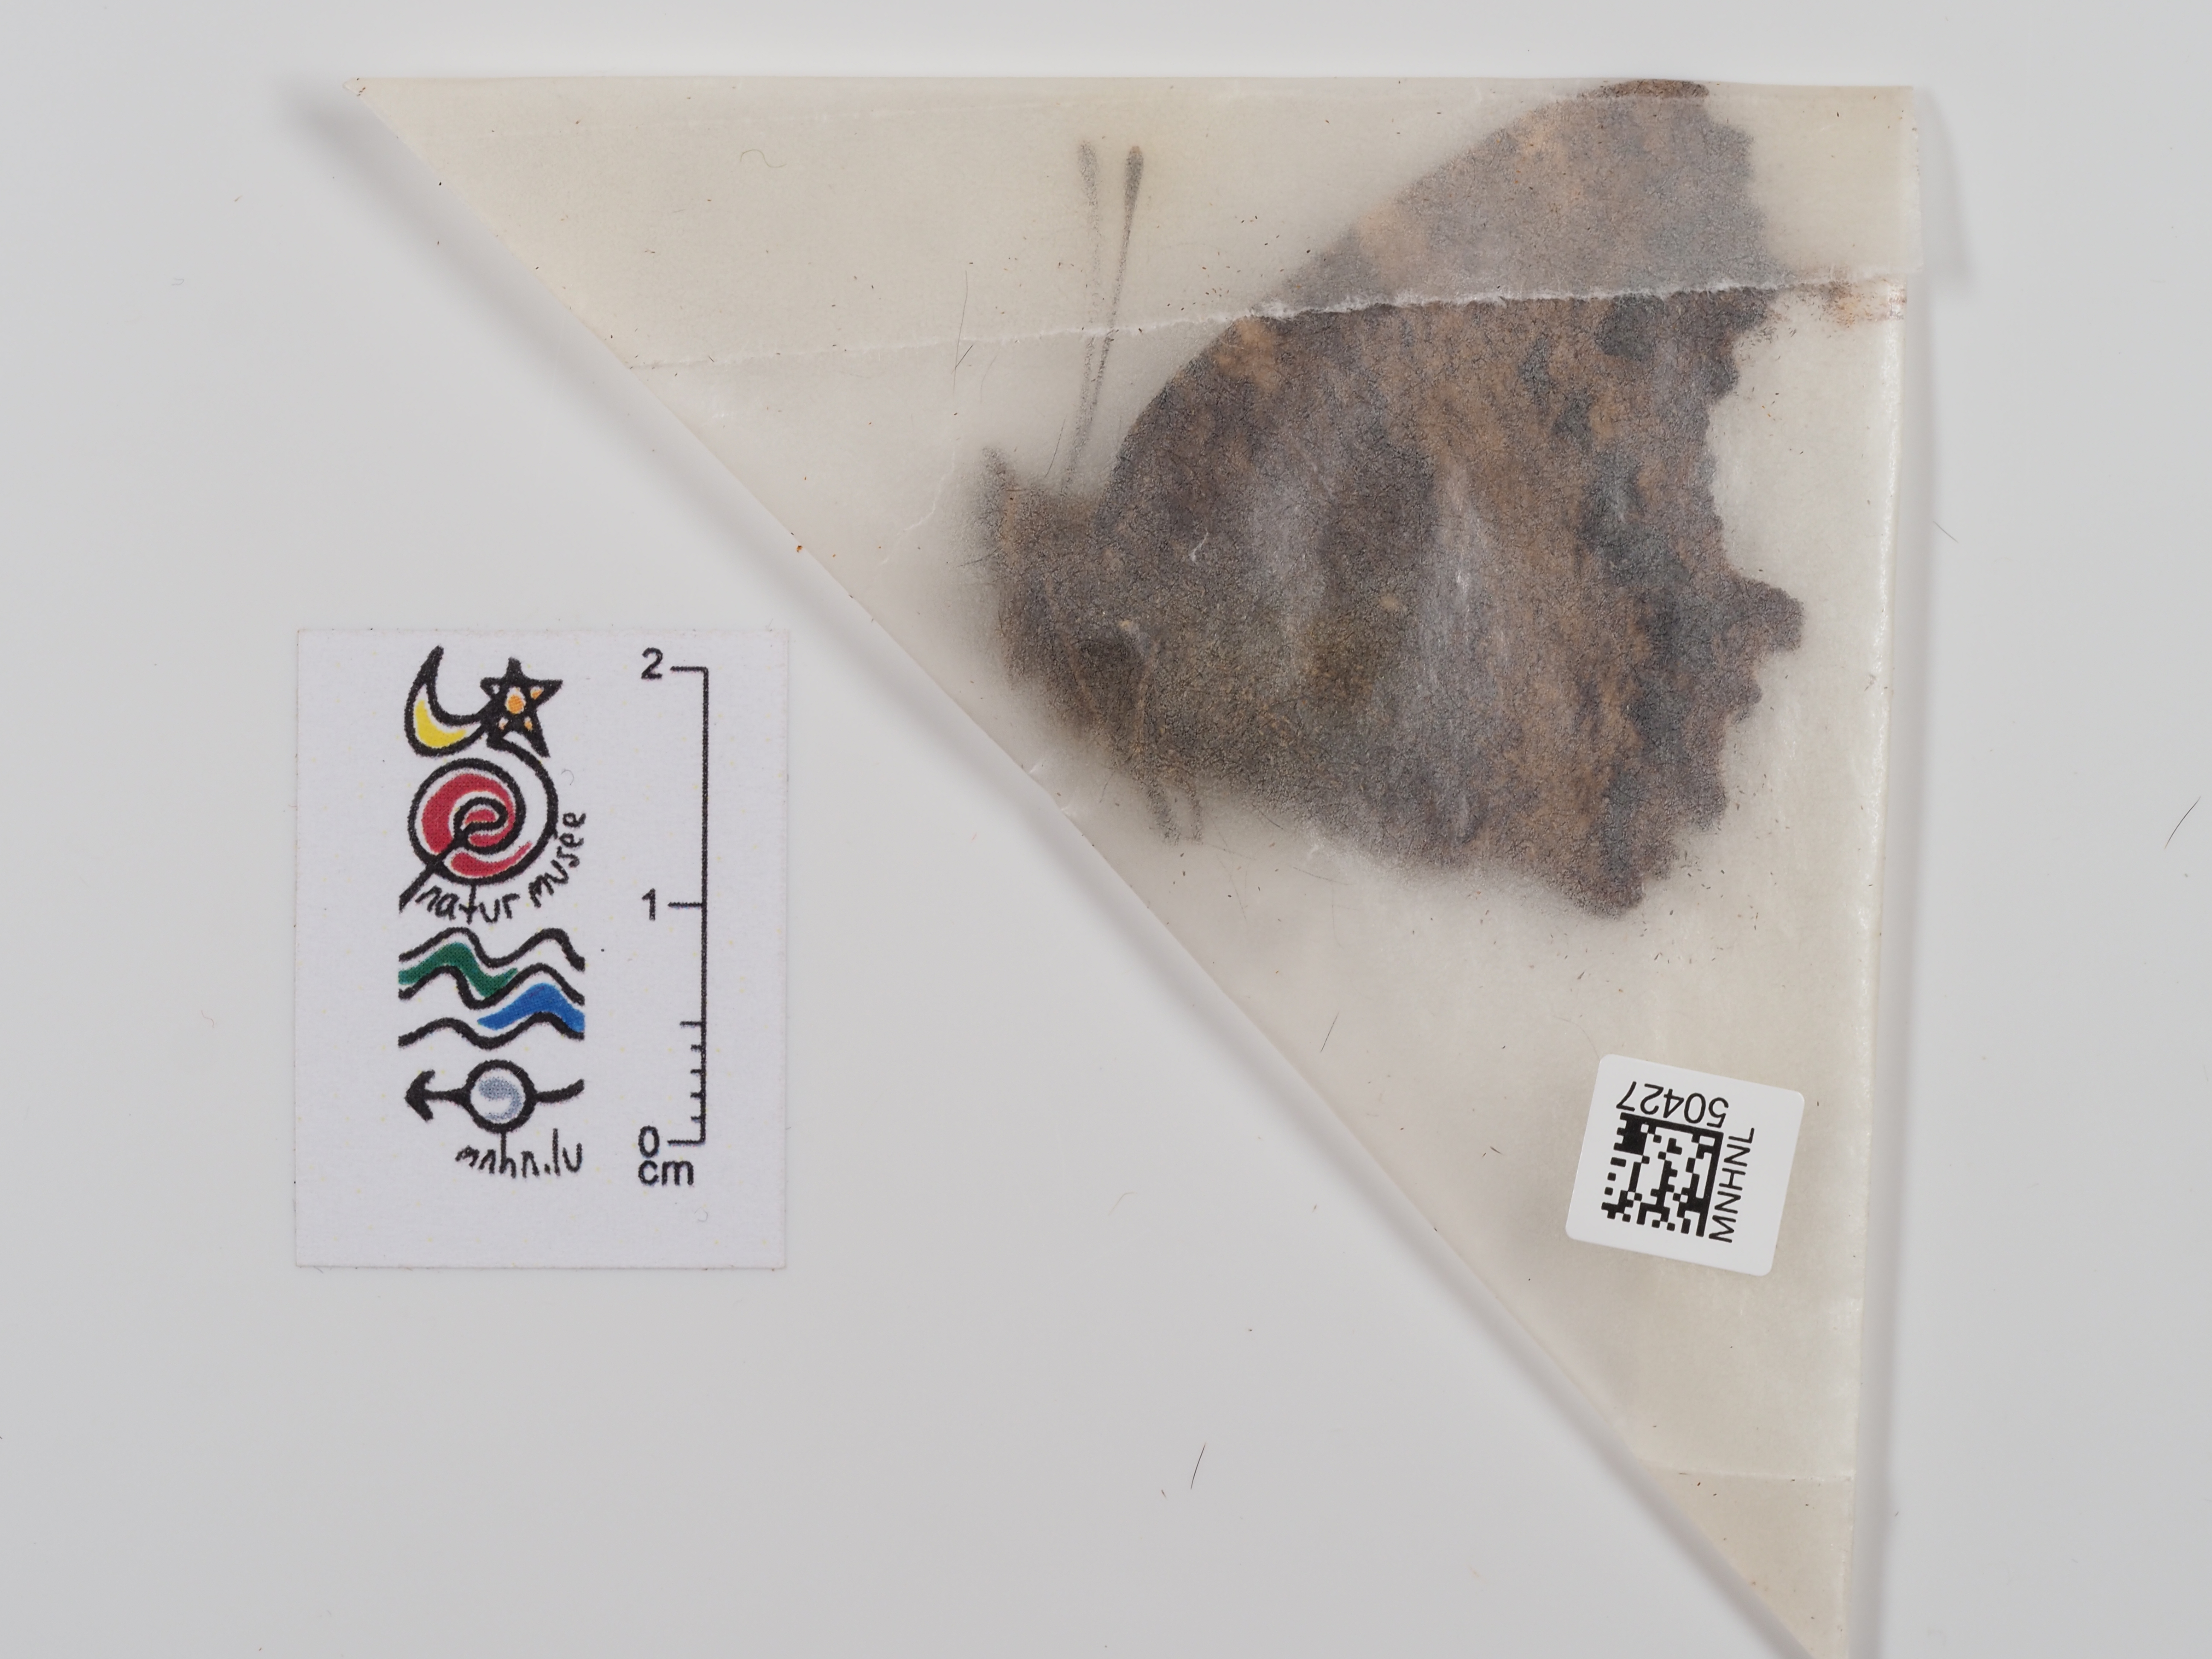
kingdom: Animalia
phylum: Arthropoda
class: Insecta
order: Lepidoptera
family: Nymphalidae
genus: Nymphalis
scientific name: Nymphalis polychloros
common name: Large tortoiseshell
